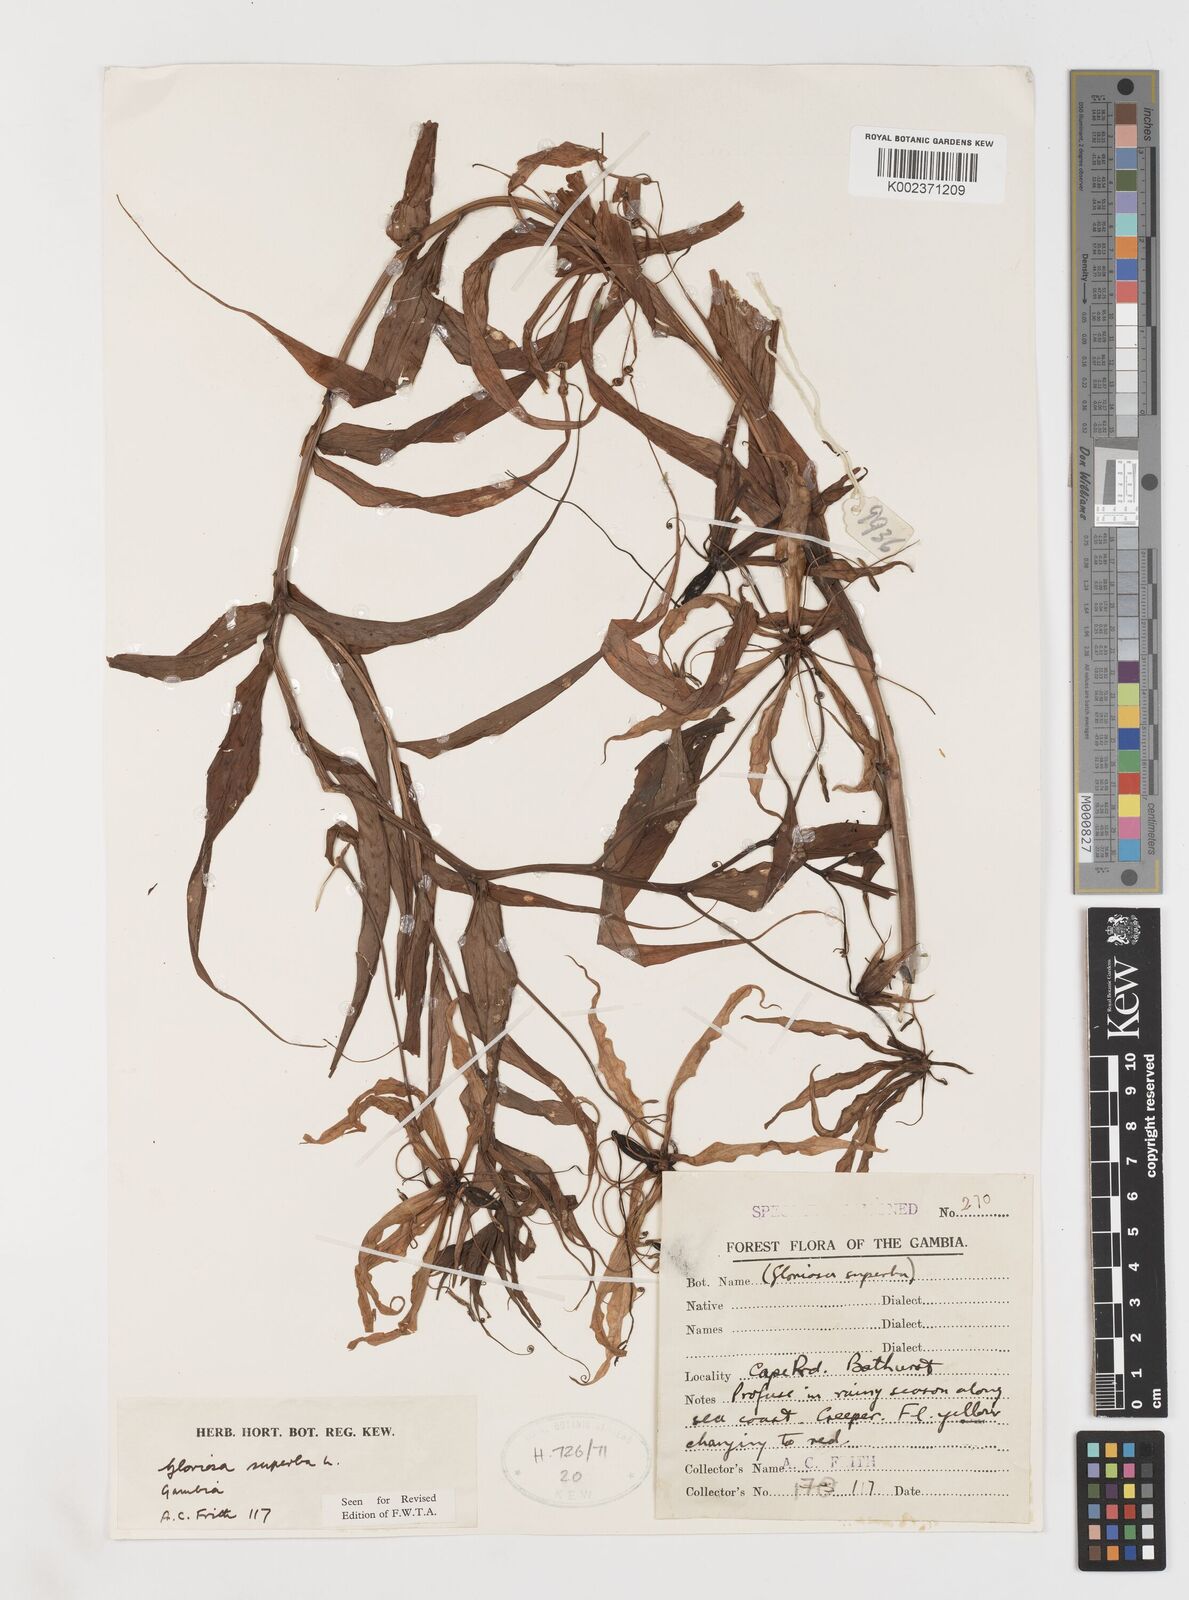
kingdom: Plantae
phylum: Tracheophyta
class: Liliopsida
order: Liliales
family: Colchicaceae
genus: Gloriosa
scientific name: Gloriosa superba
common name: Flame lily
